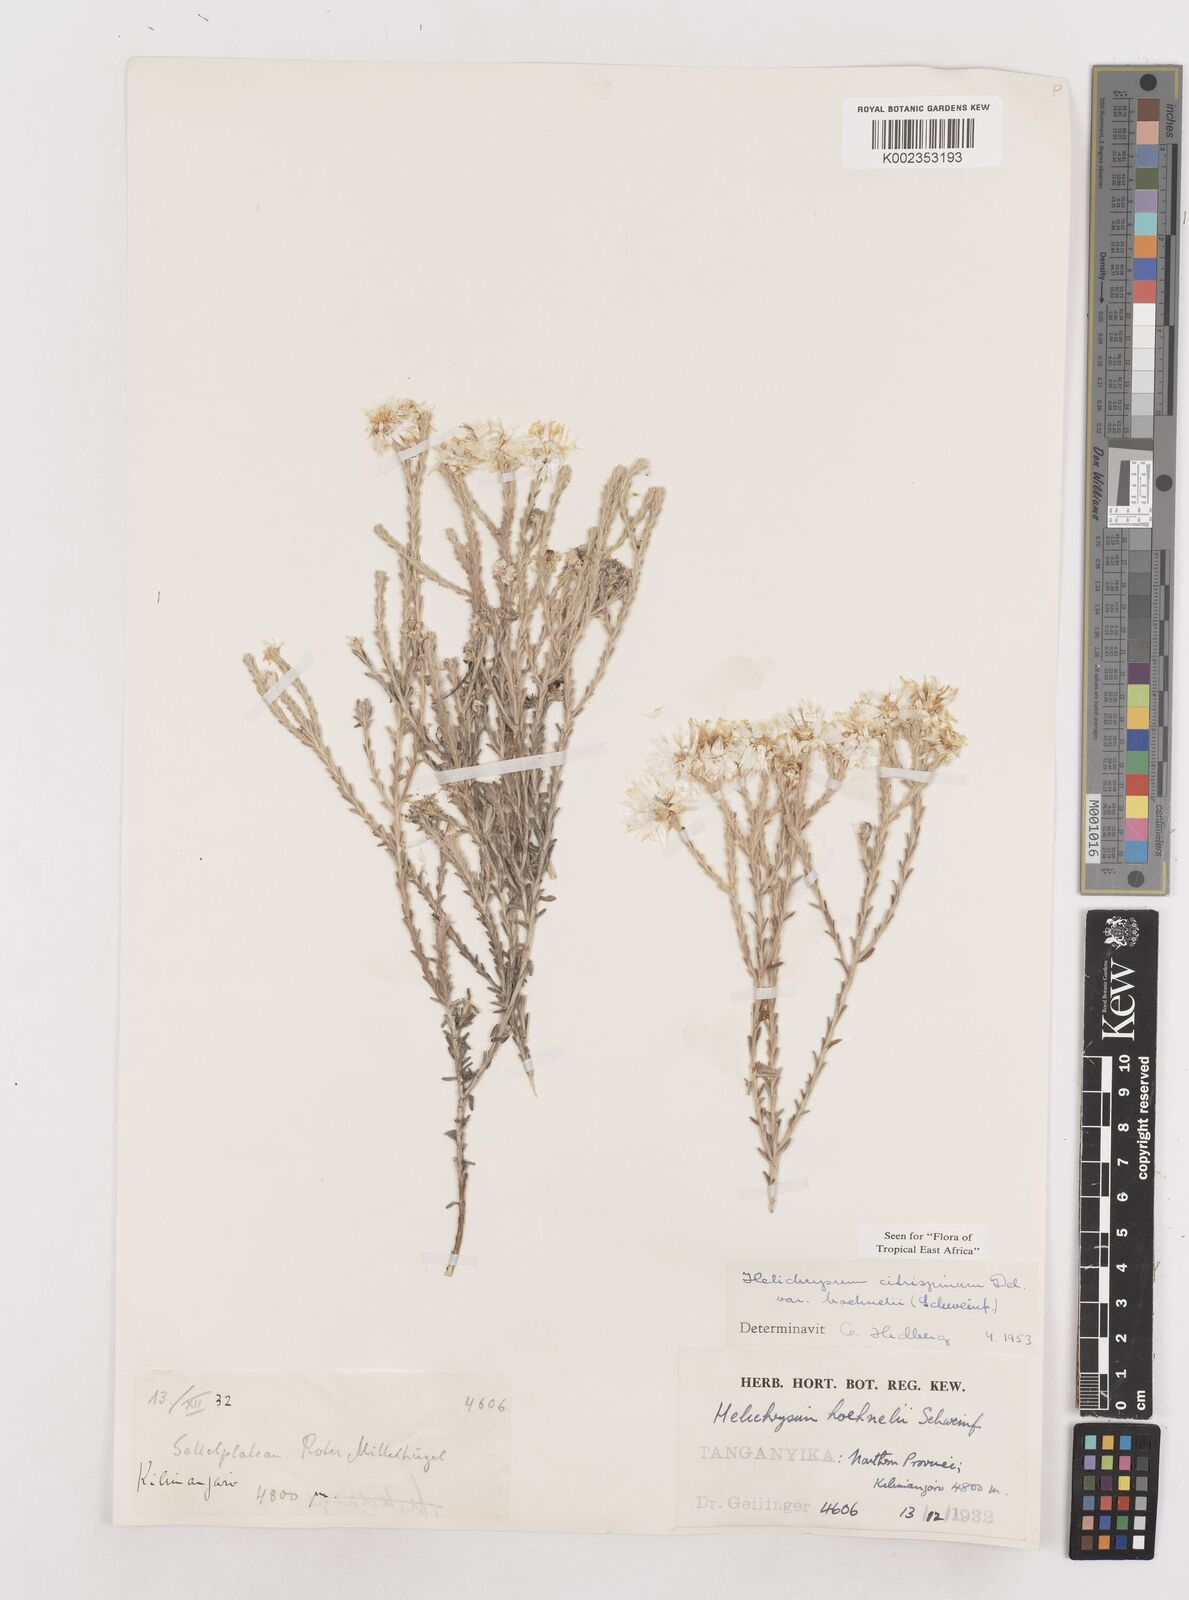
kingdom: Plantae
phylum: Tracheophyta
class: Magnoliopsida
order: Asterales
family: Asteraceae
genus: Helichrysum
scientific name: Helichrysum citrispinum
